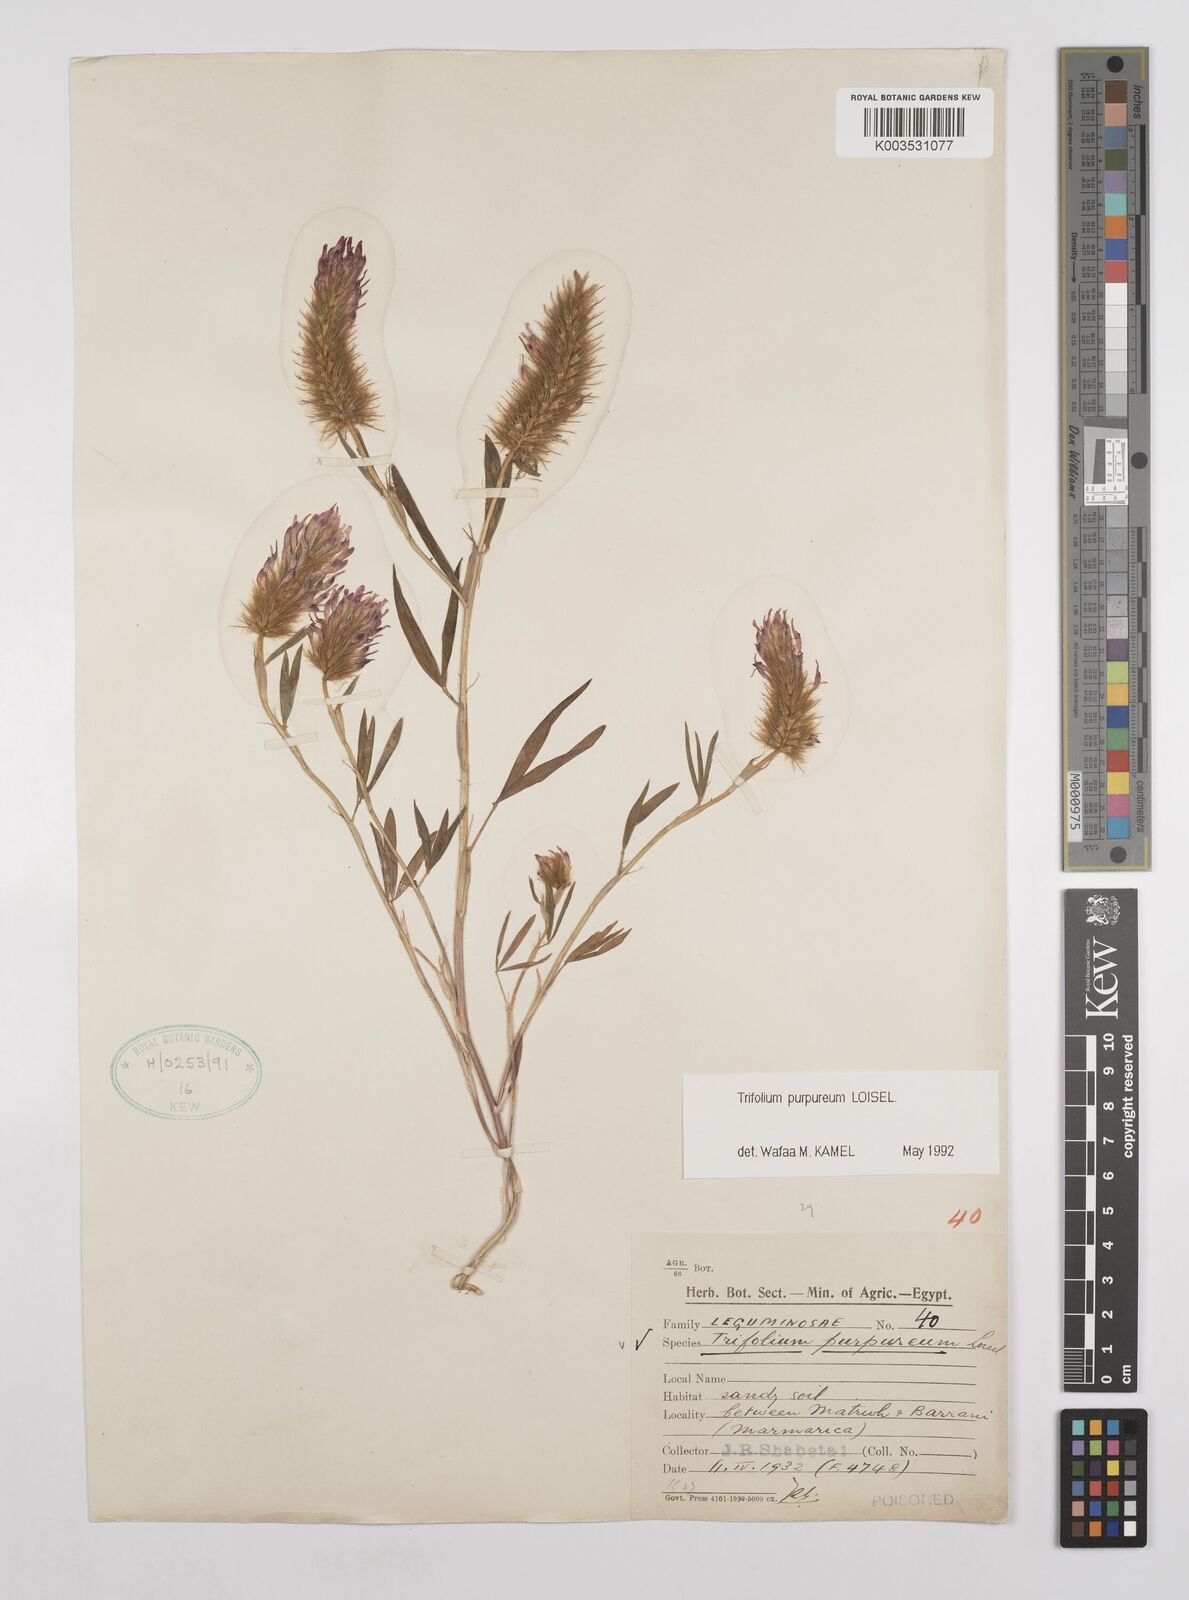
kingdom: Plantae
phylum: Tracheophyta
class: Magnoliopsida
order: Fabales
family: Fabaceae
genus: Trifolium
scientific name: Trifolium purpureum
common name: Purple clover
